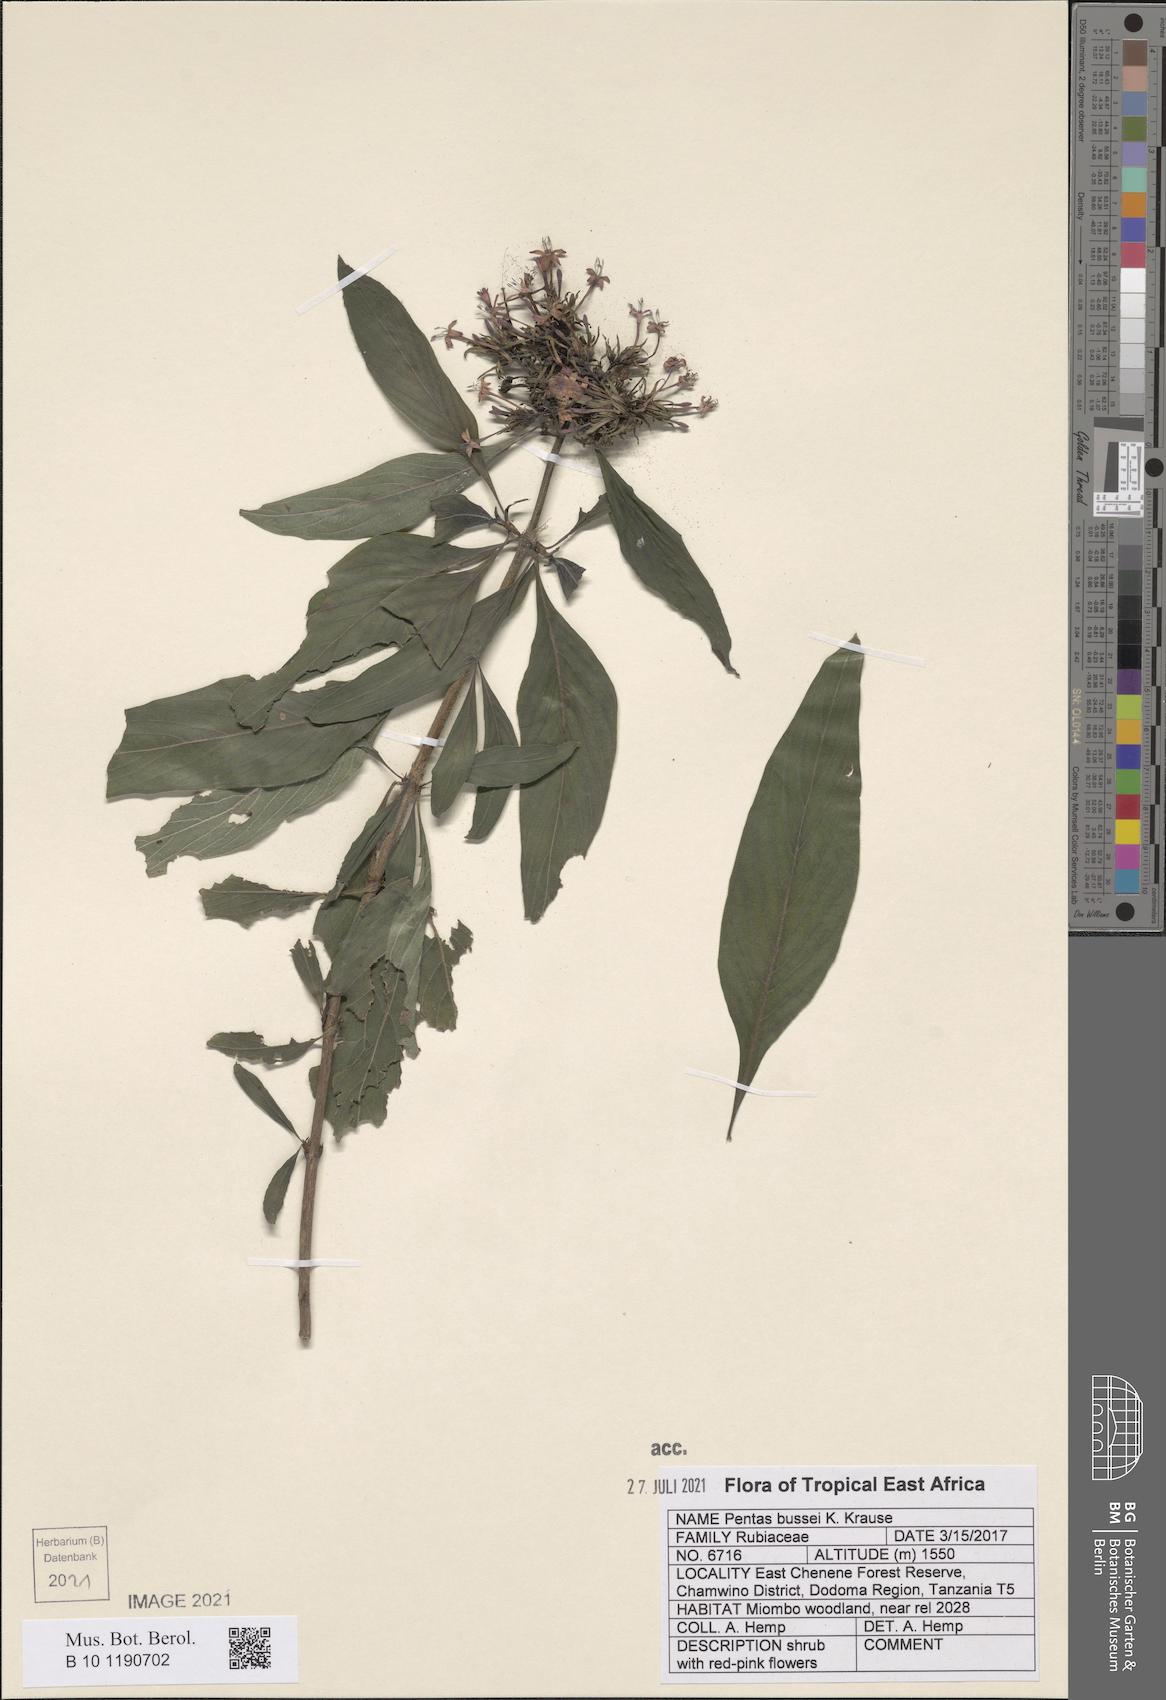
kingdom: Plantae
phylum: Tracheophyta
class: Magnoliopsida
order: Gentianales
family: Rubiaceae
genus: Rhodopentas
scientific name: Rhodopentas bussei
